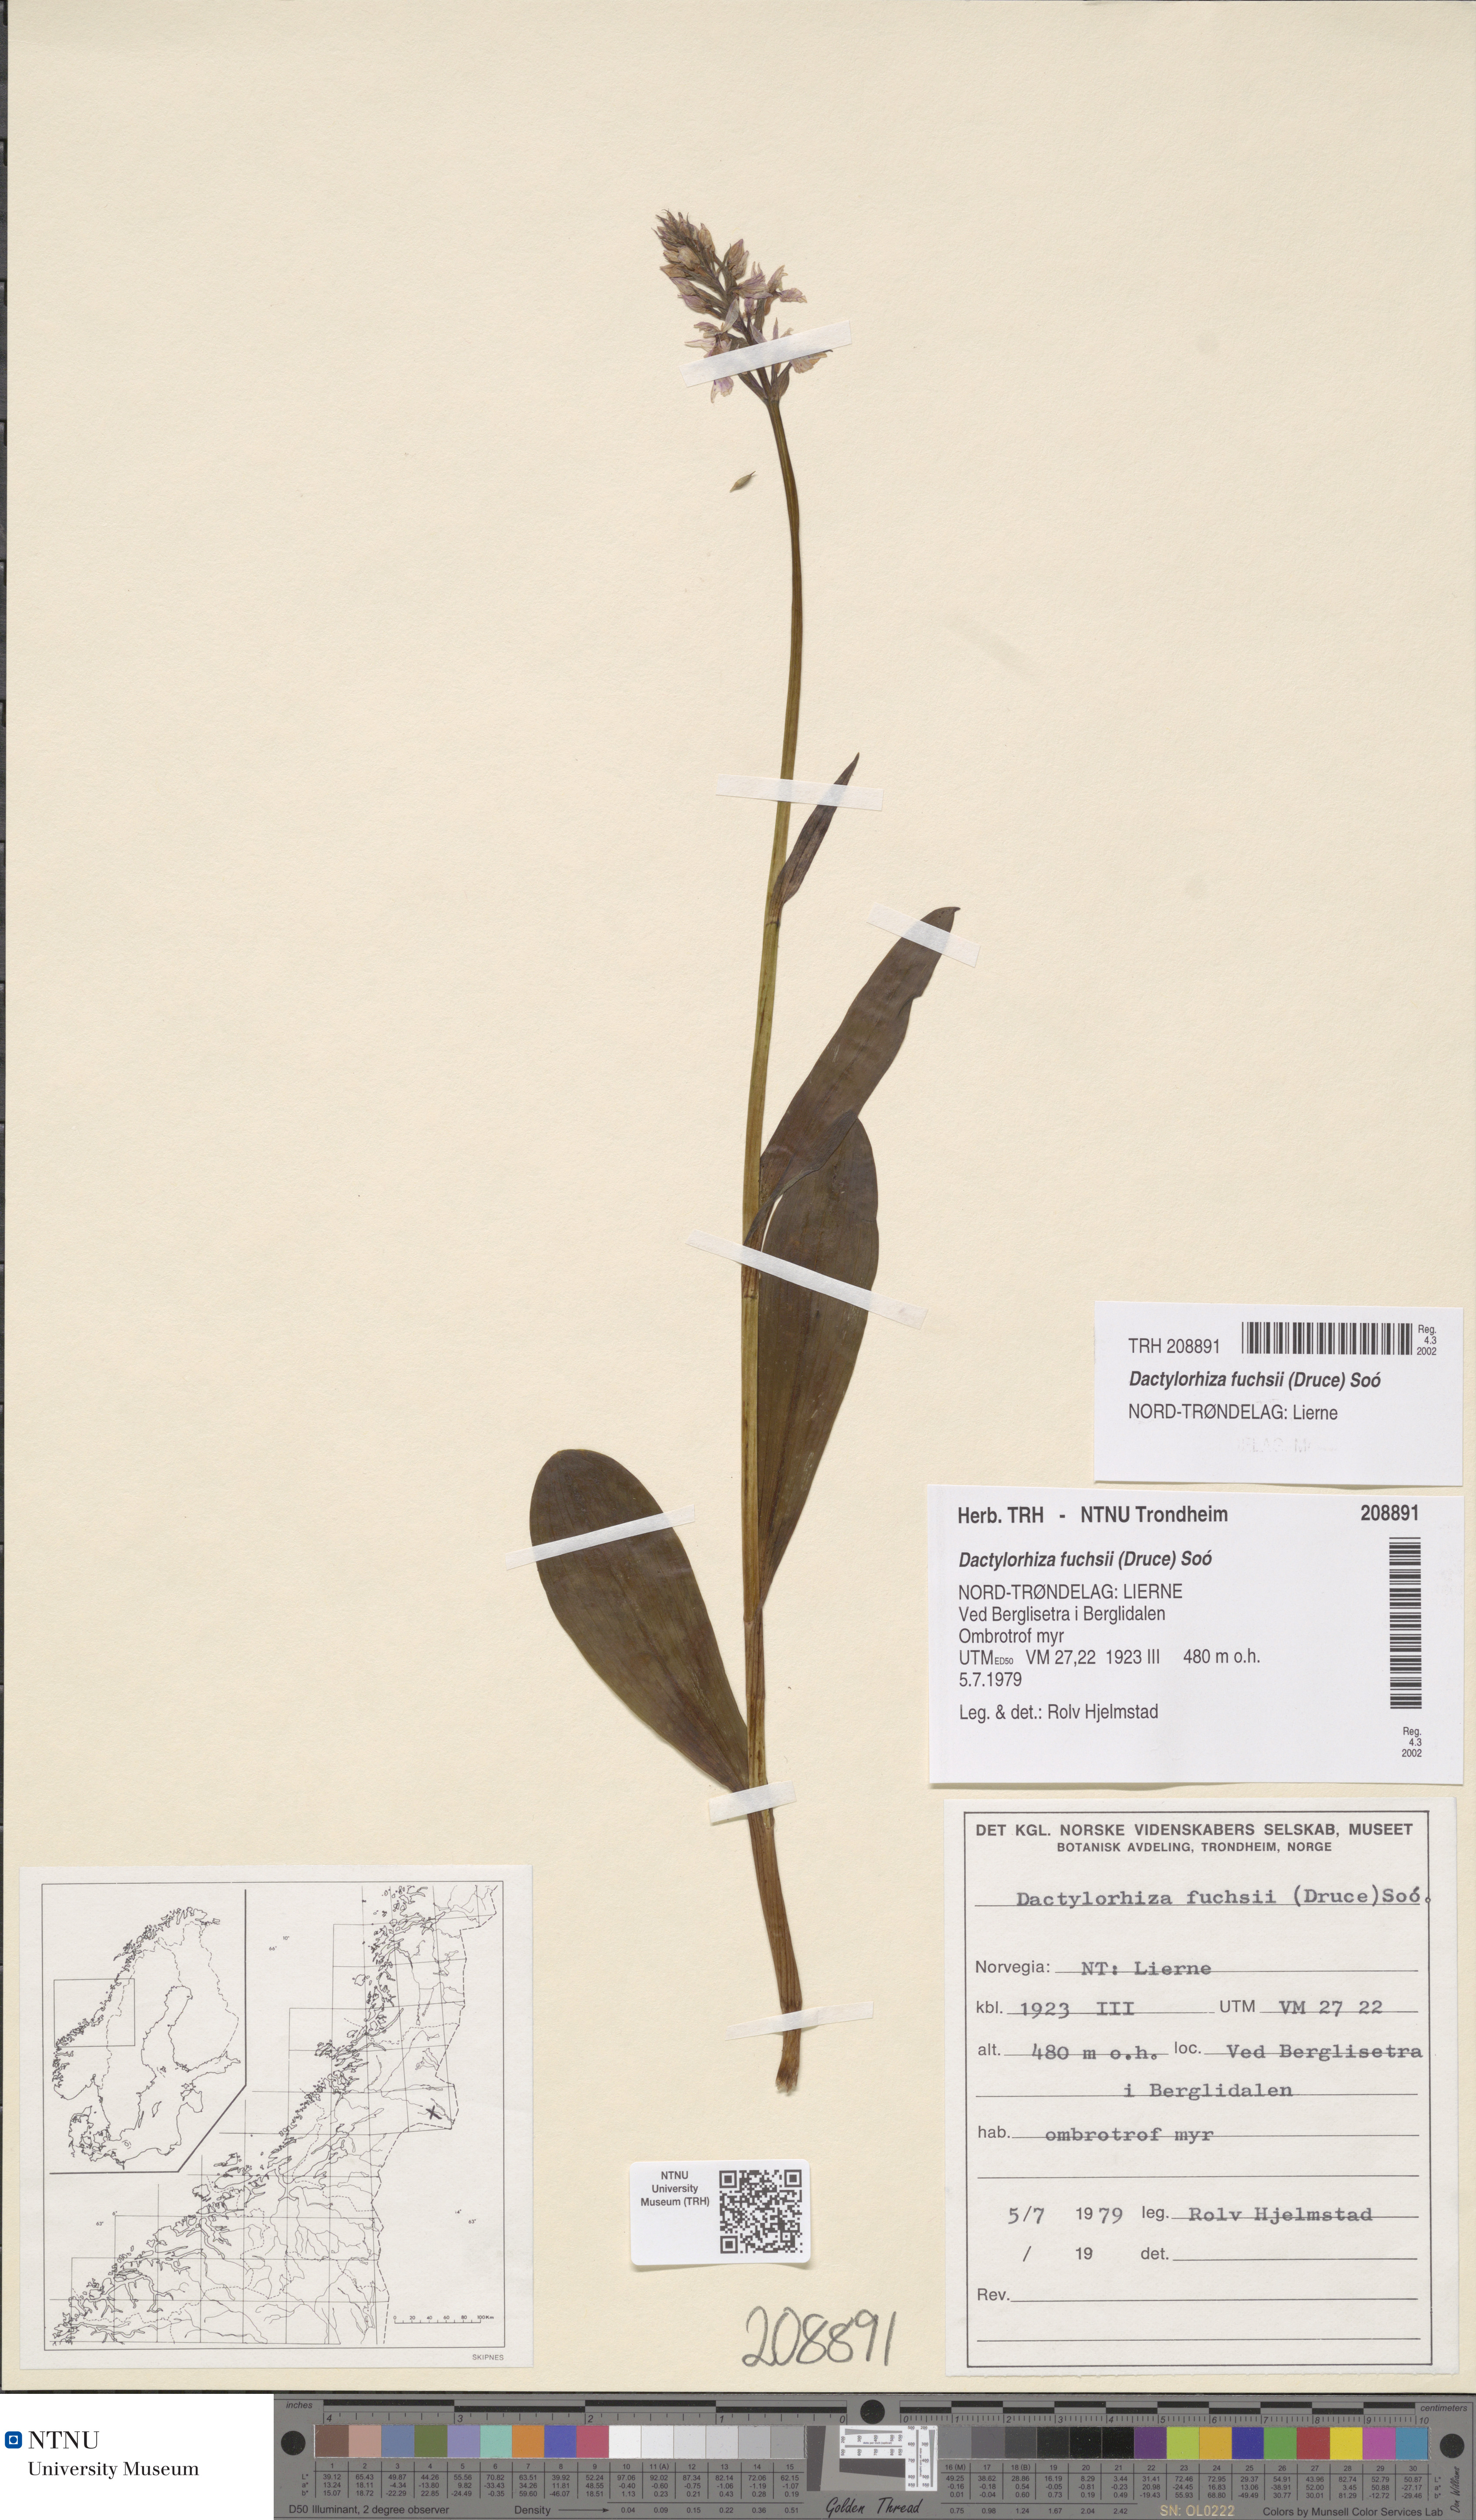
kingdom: Plantae
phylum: Tracheophyta
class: Liliopsida
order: Asparagales
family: Orchidaceae
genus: Dactylorhiza
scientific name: Dactylorhiza maculata
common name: Heath spotted-orchid
